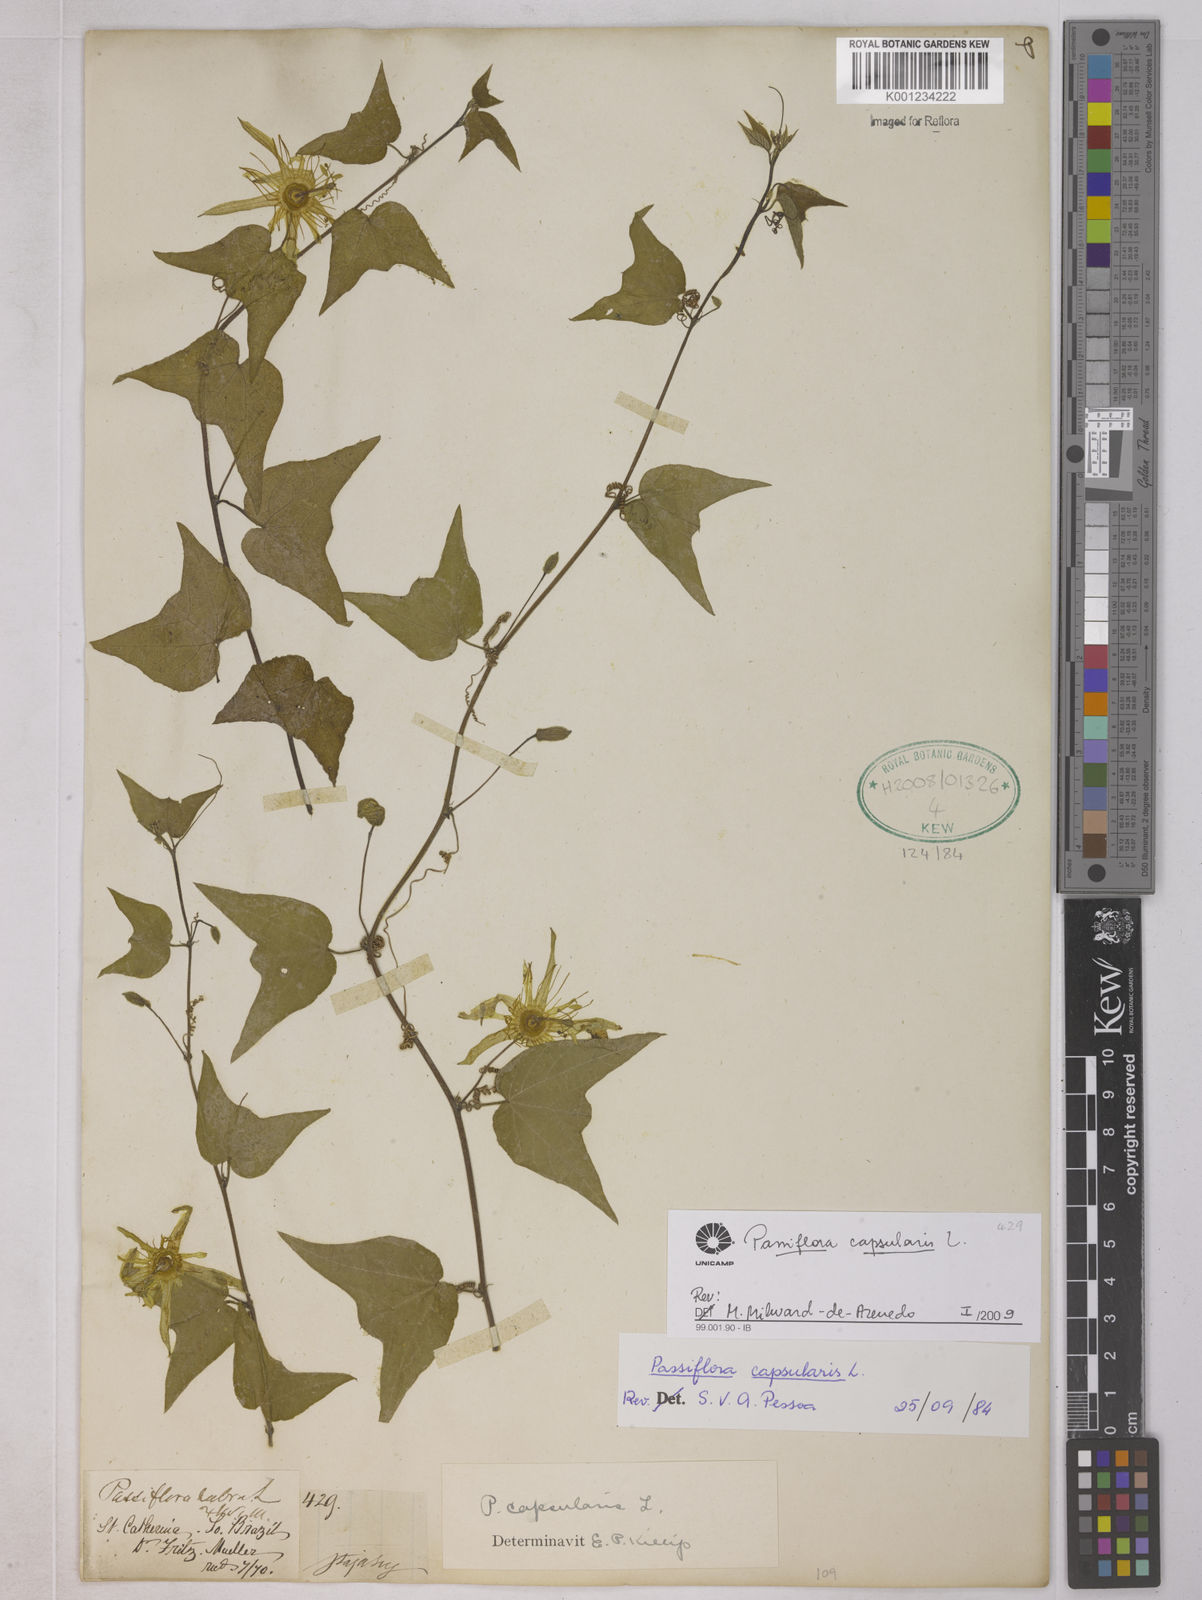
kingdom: Plantae
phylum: Tracheophyta
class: Magnoliopsida
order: Malpighiales
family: Passifloraceae
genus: Passiflora
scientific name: Passiflora capsularis
